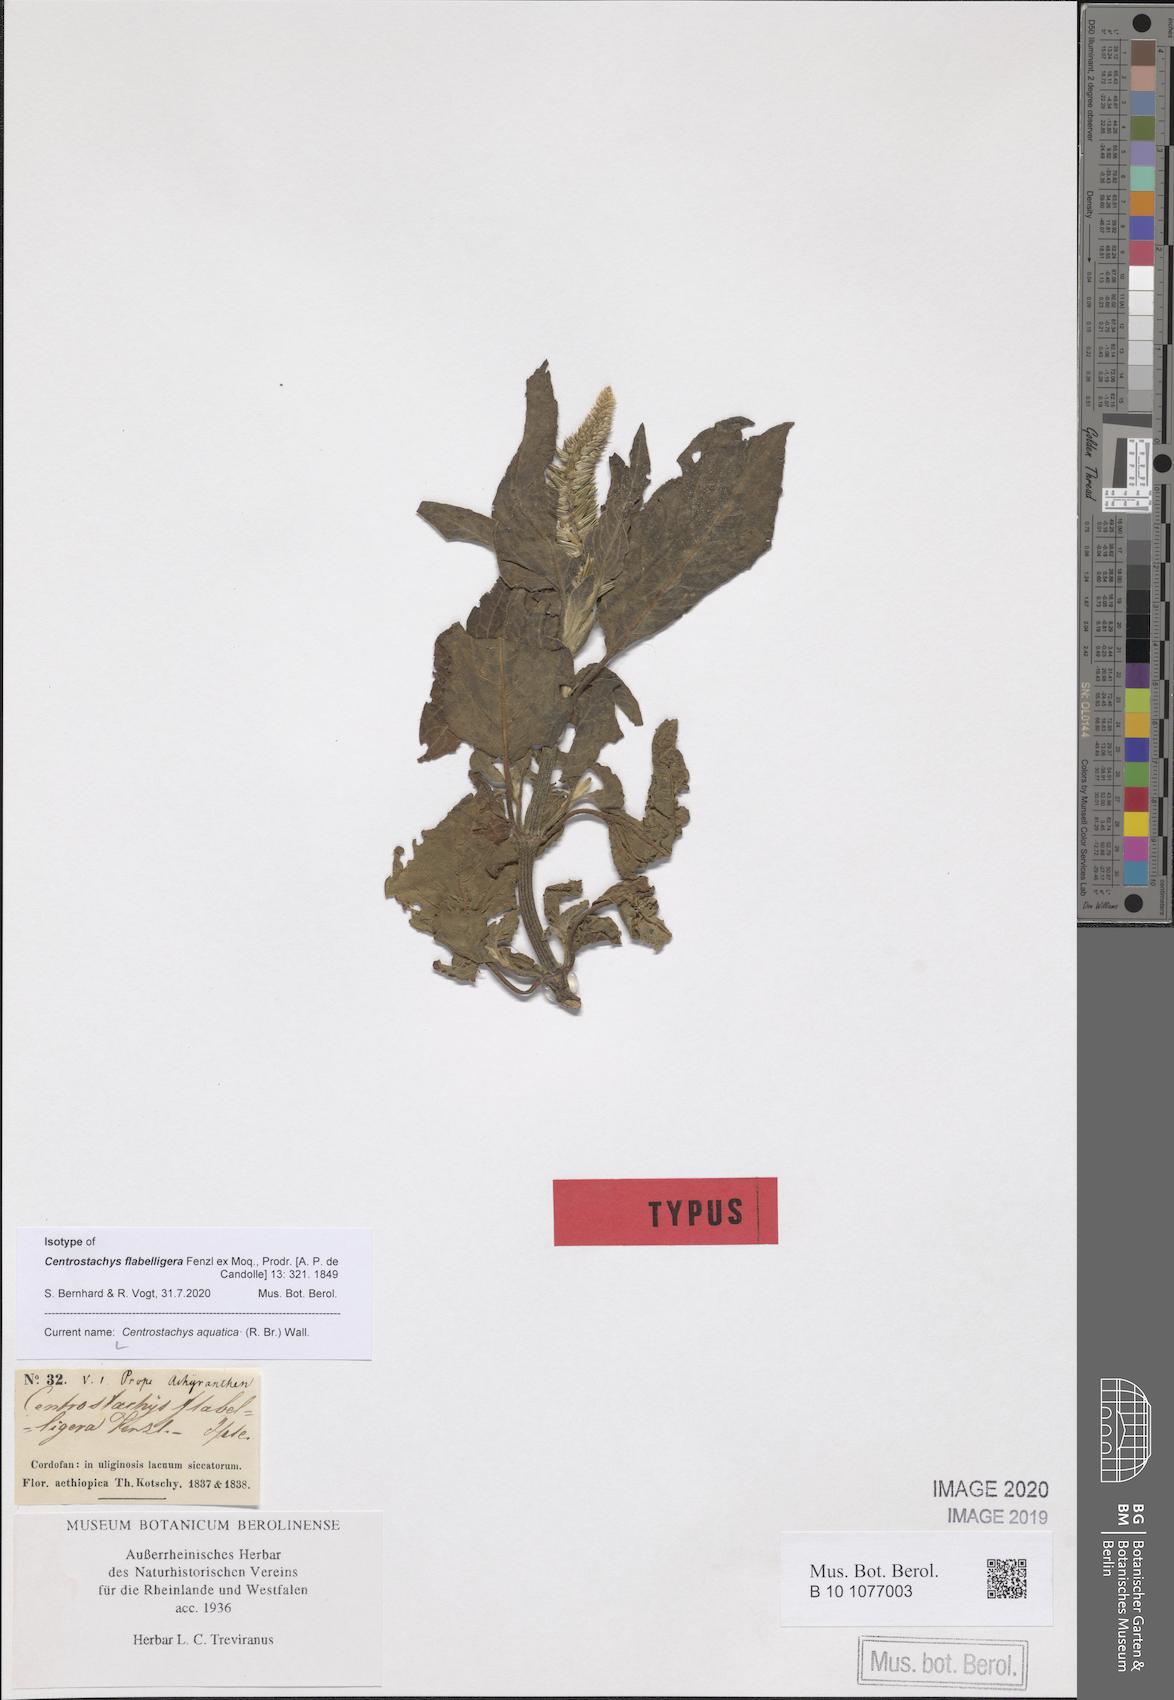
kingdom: Plantae
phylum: Tracheophyta
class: Magnoliopsida
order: Caryophyllales
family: Amaranthaceae
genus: Centrostachys
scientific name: Centrostachys aquatica
